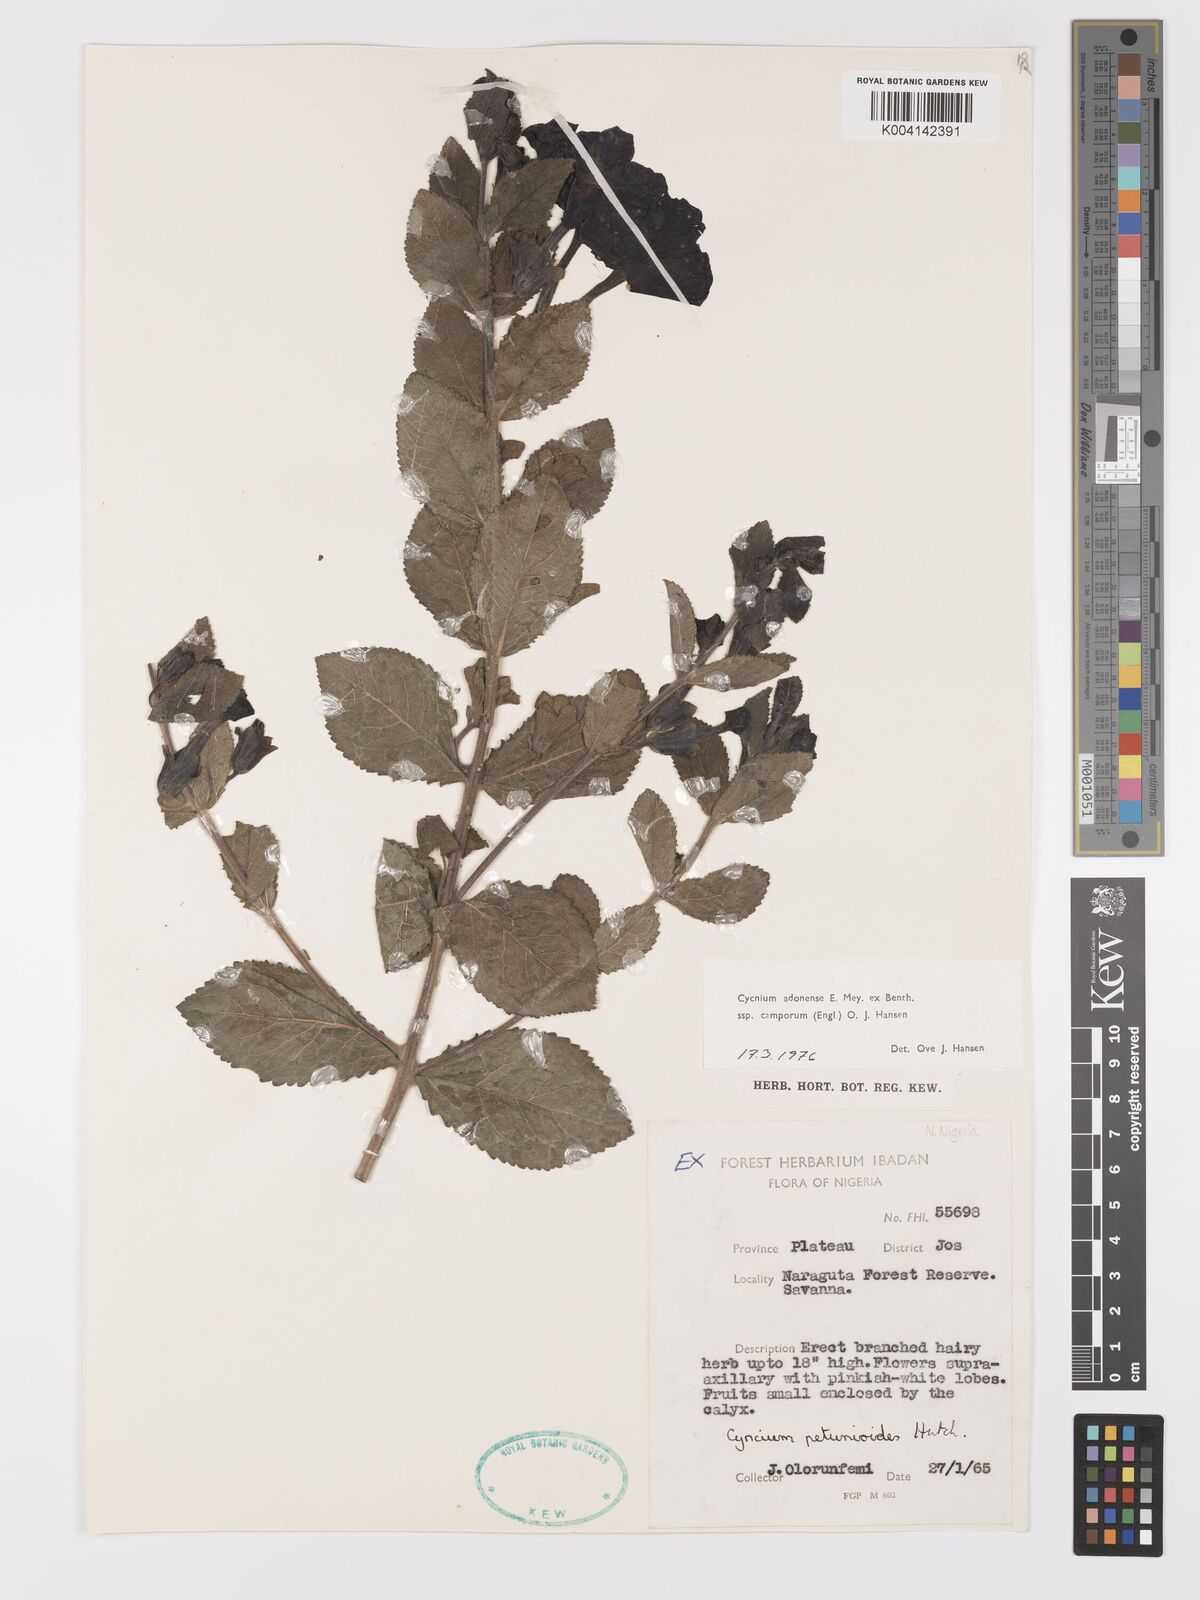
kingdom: Plantae
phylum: Tracheophyta
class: Magnoliopsida
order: Lamiales
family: Orobanchaceae
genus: Cycnium
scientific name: Cycnium adoense
